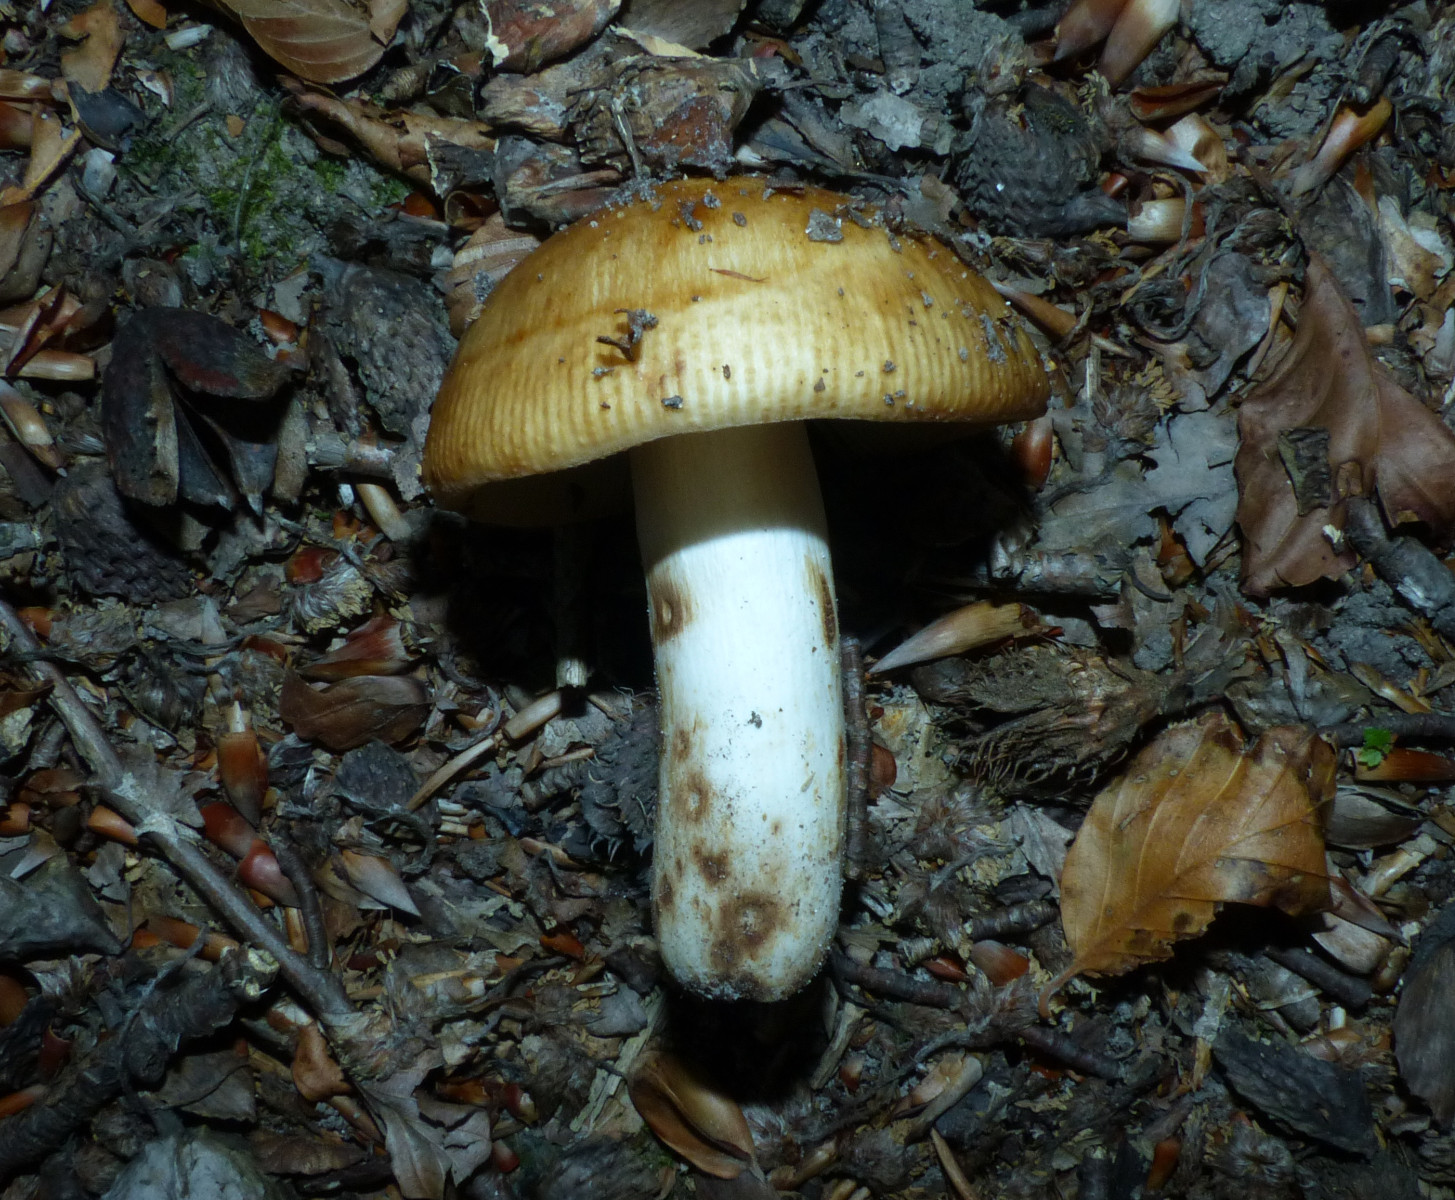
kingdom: Fungi
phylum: Basidiomycota
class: Agaricomycetes
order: Russulales
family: Russulaceae
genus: Russula
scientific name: Russula grata
